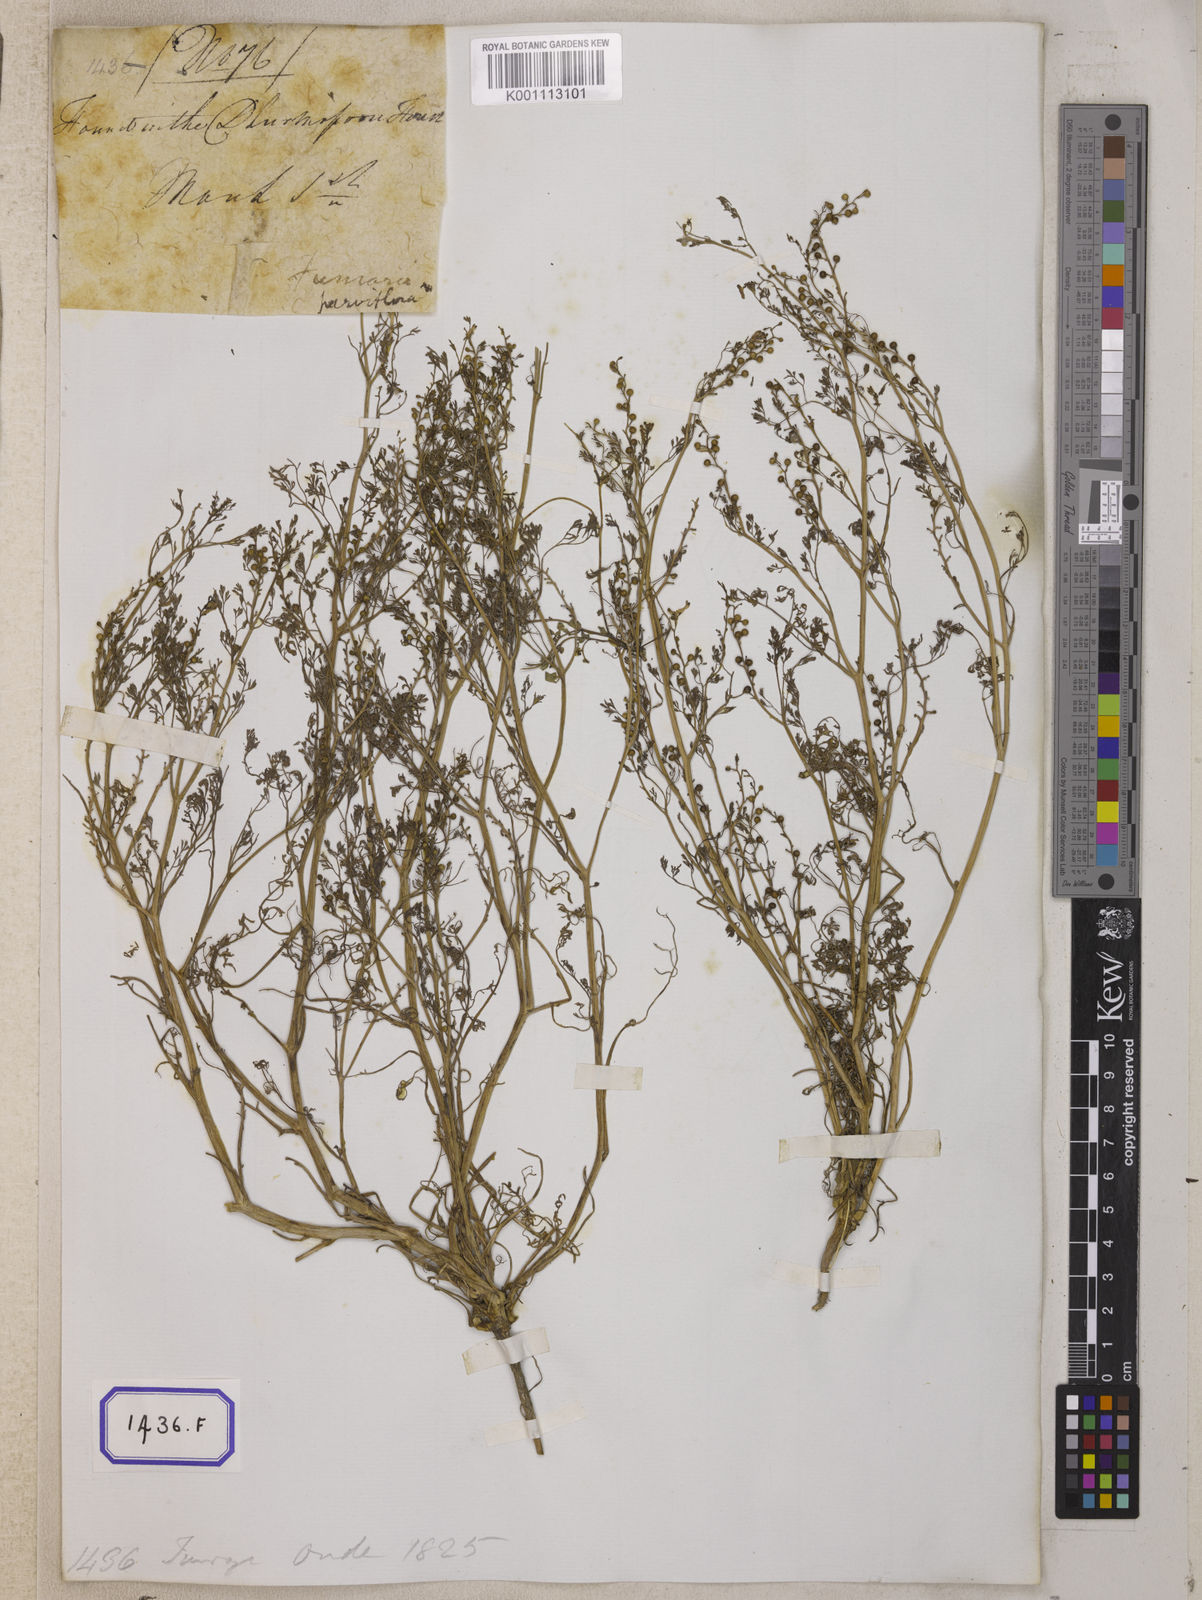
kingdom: Plantae
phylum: Tracheophyta
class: Magnoliopsida
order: Ranunculales
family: Papaveraceae
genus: Fumaria
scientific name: Fumaria parviflora
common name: Fine-leaved fumitory
